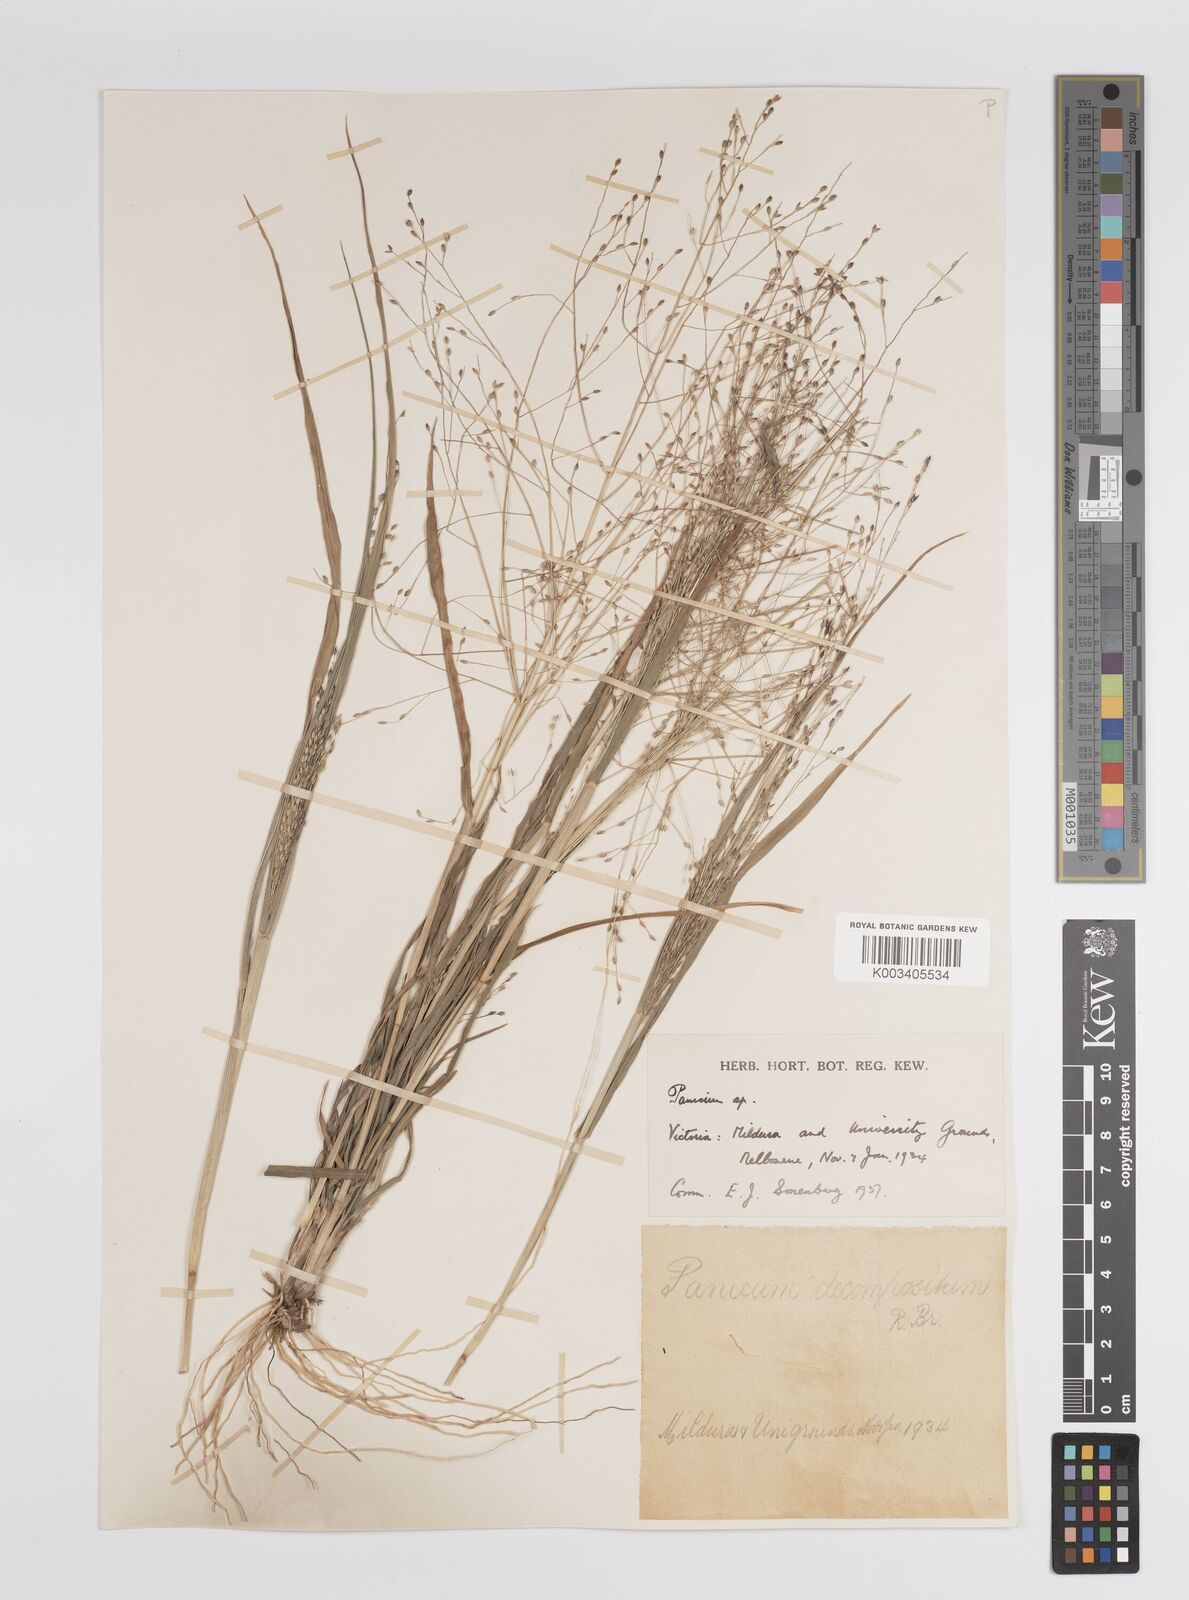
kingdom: Plantae
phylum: Tracheophyta
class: Liliopsida
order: Poales
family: Poaceae
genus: Panicum
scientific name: Panicum
